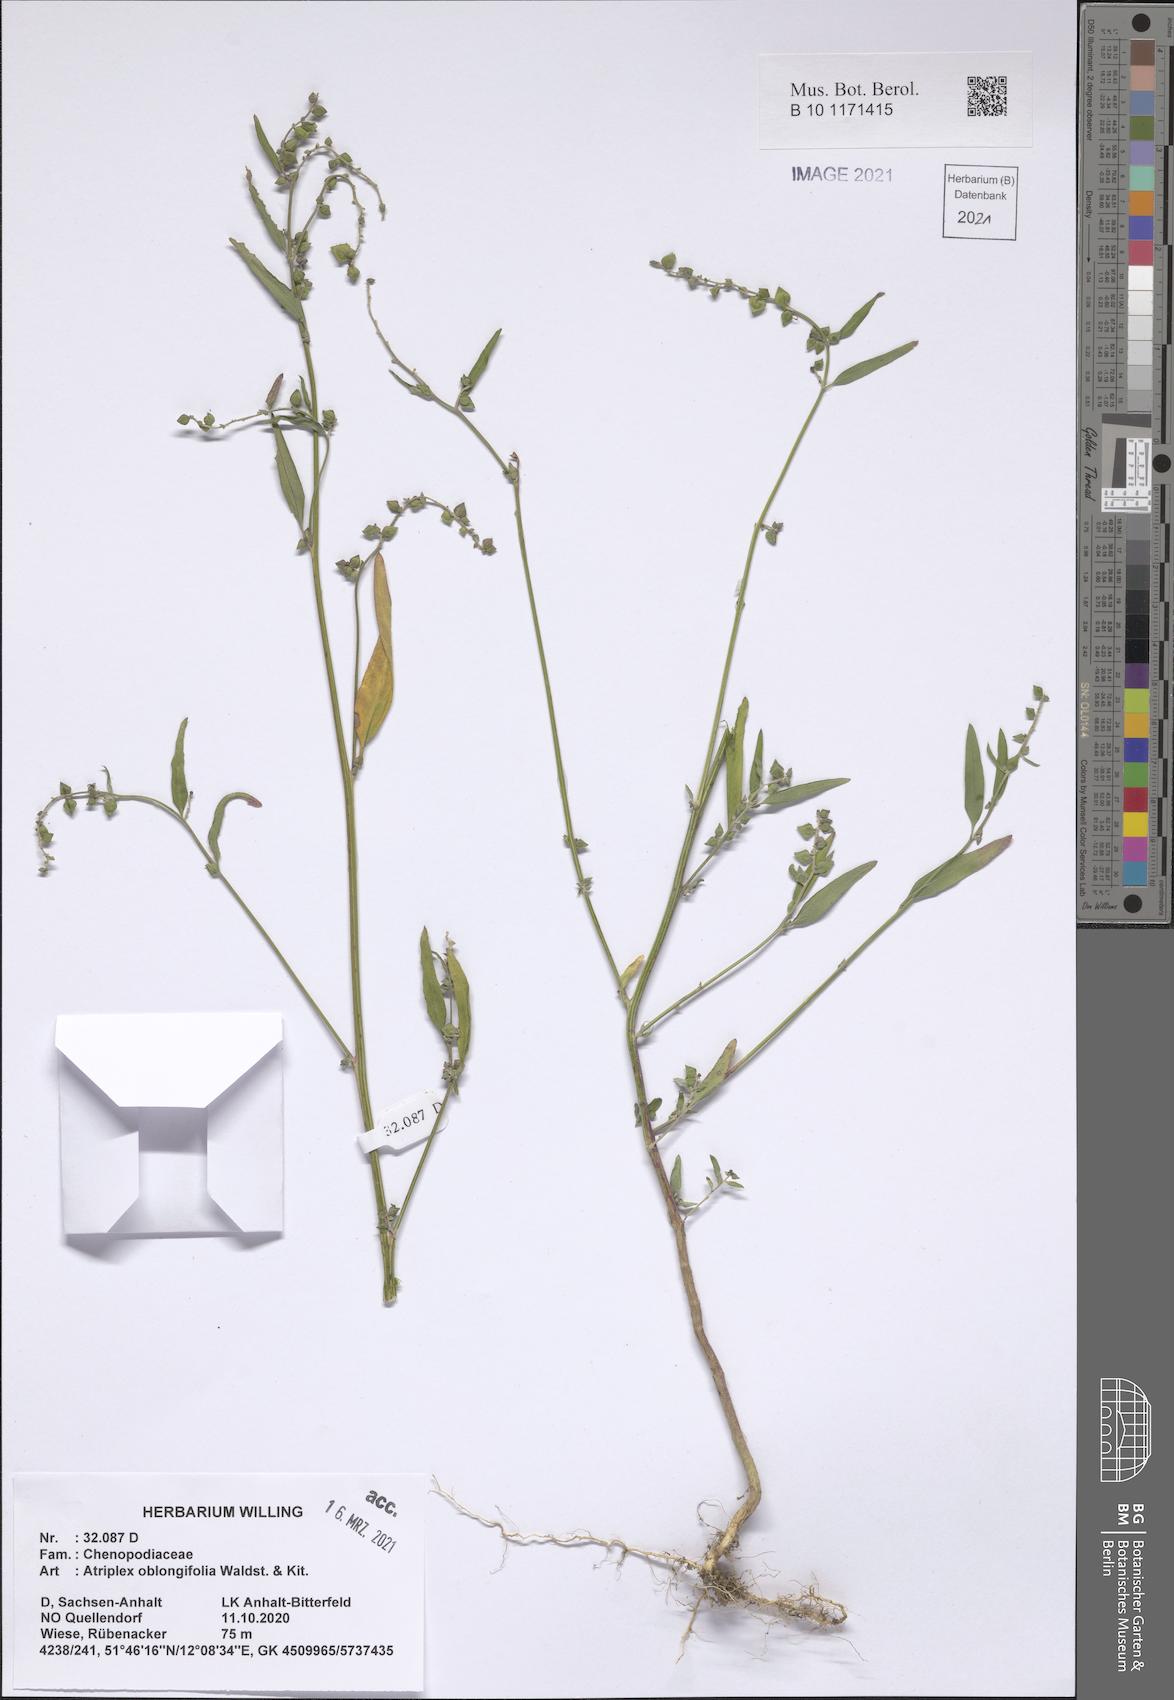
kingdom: Plantae
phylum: Tracheophyta
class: Magnoliopsida
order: Caryophyllales
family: Amaranthaceae
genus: Atriplex
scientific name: Atriplex oblongifolia
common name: Oblongleaf orache
